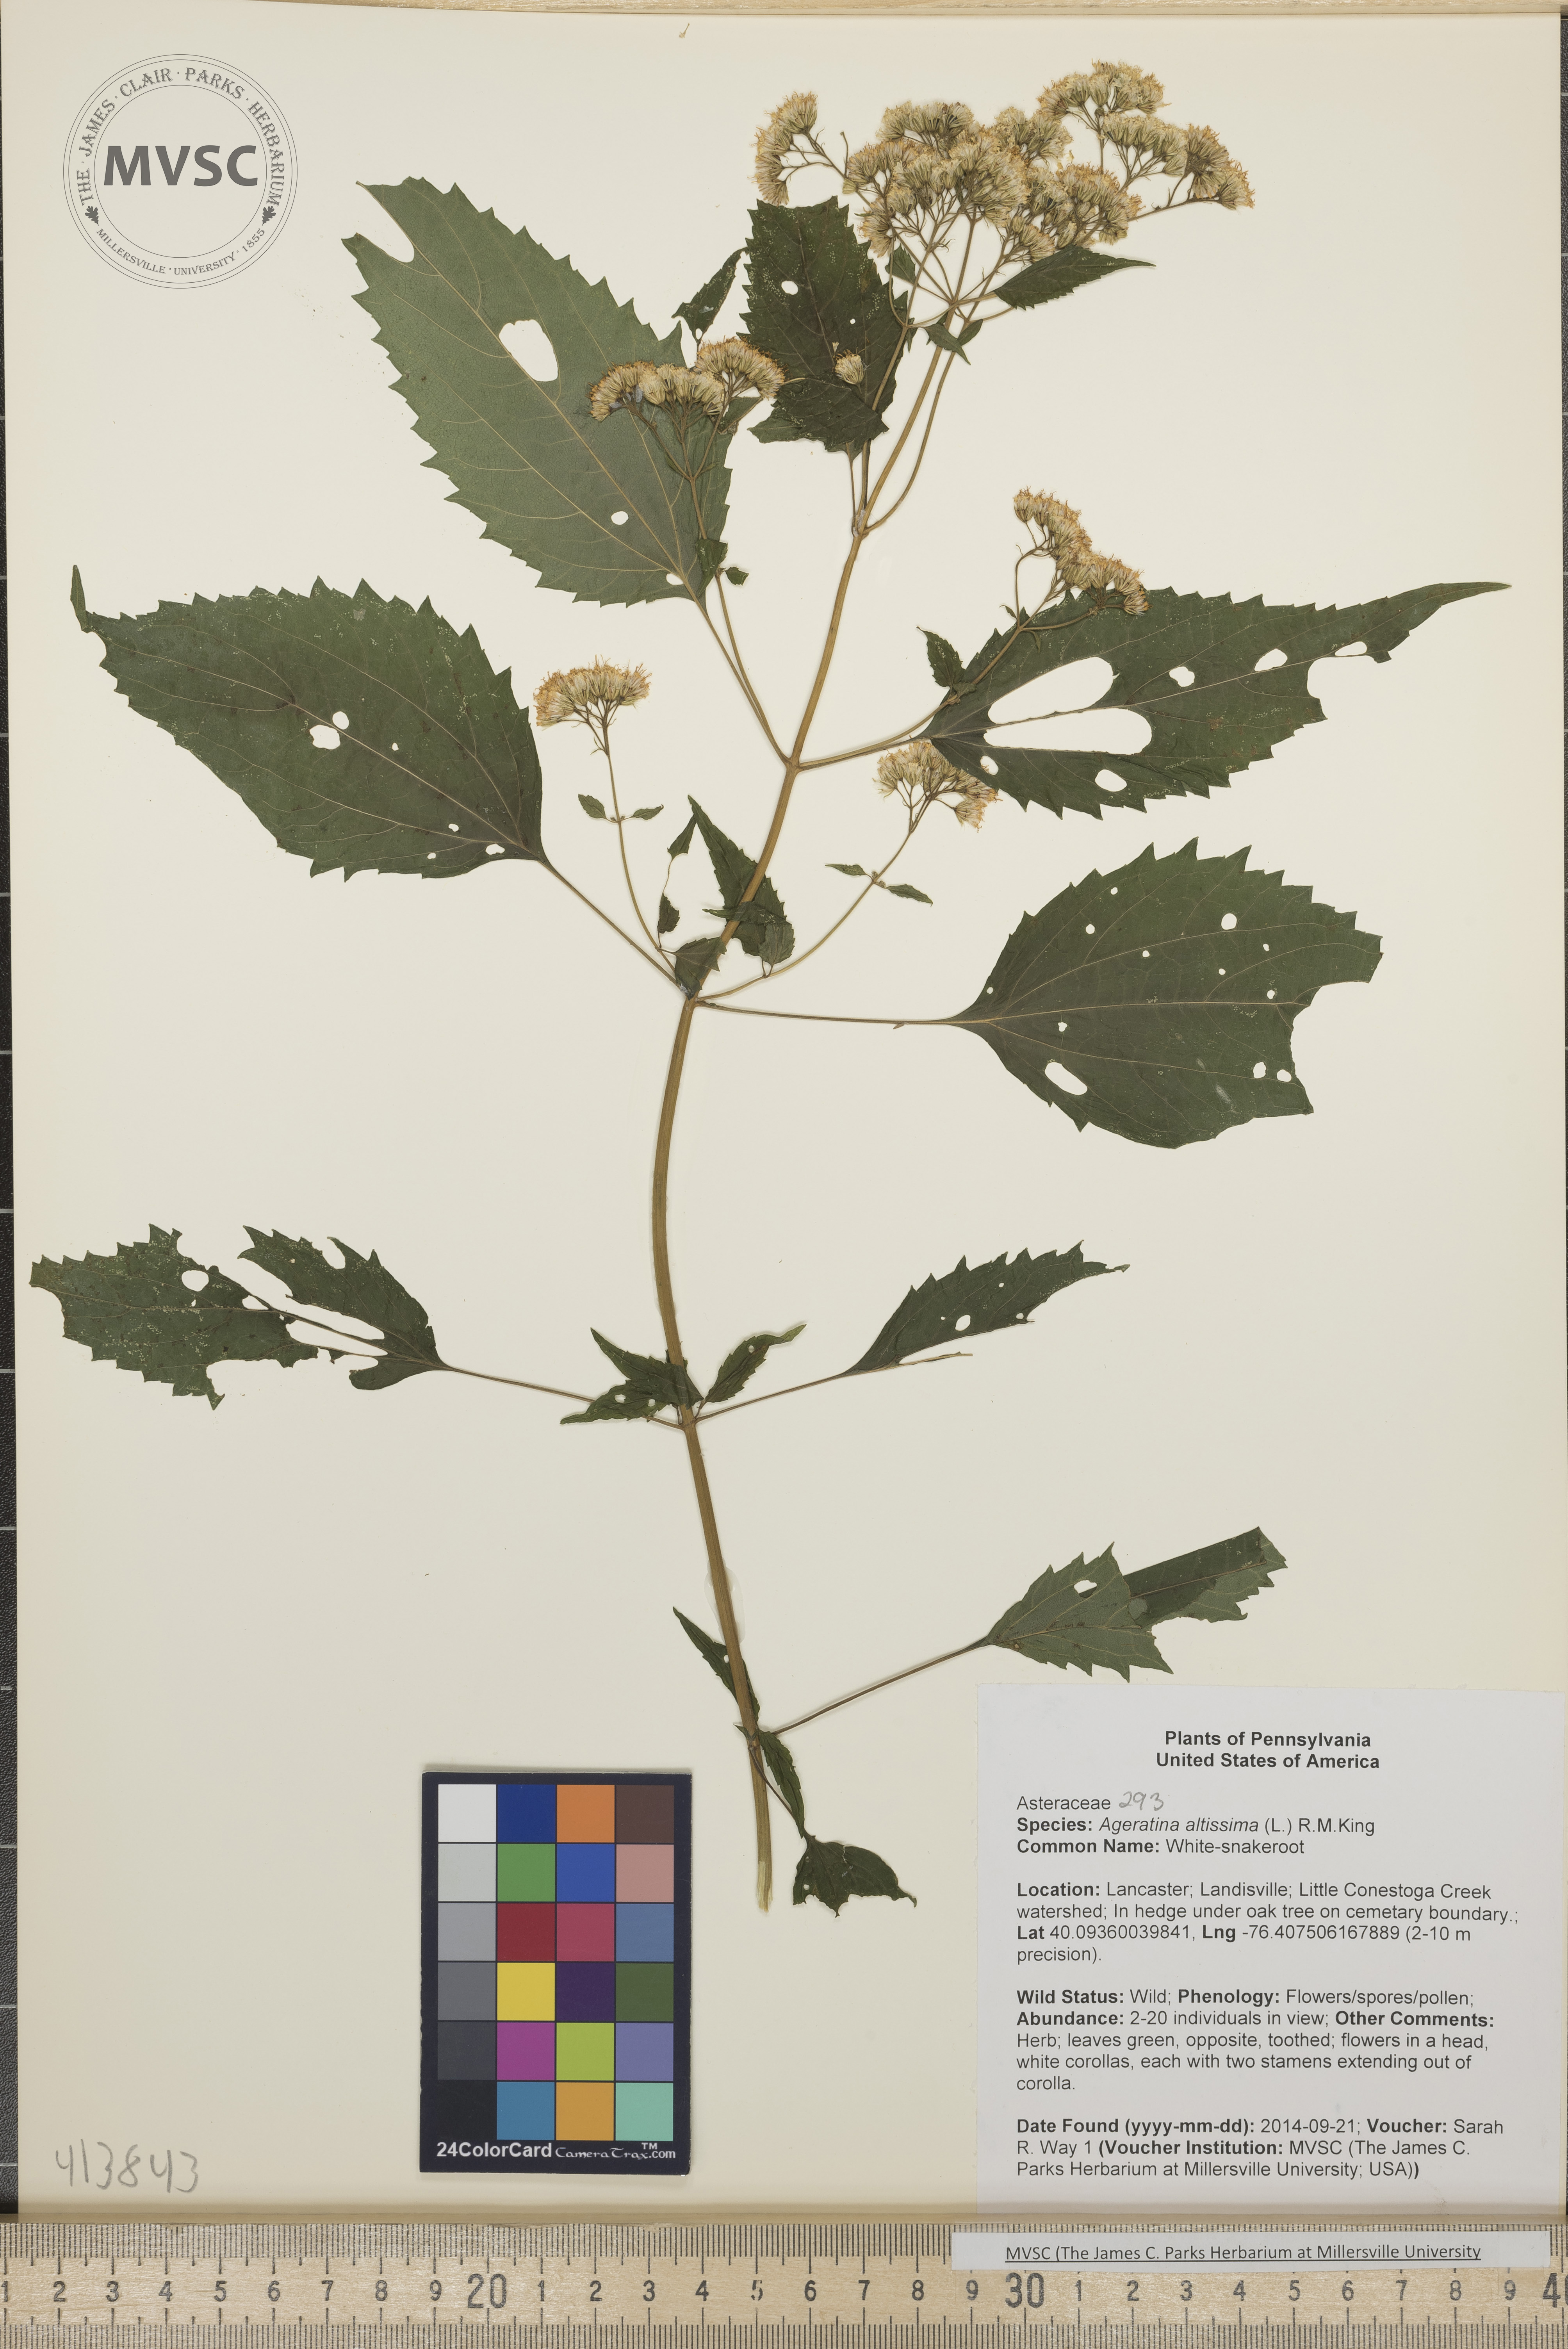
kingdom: Plantae
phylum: Tracheophyta
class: Magnoliopsida
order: Asterales
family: Asteraceae
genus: Ageratina
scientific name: Ageratina altissima
